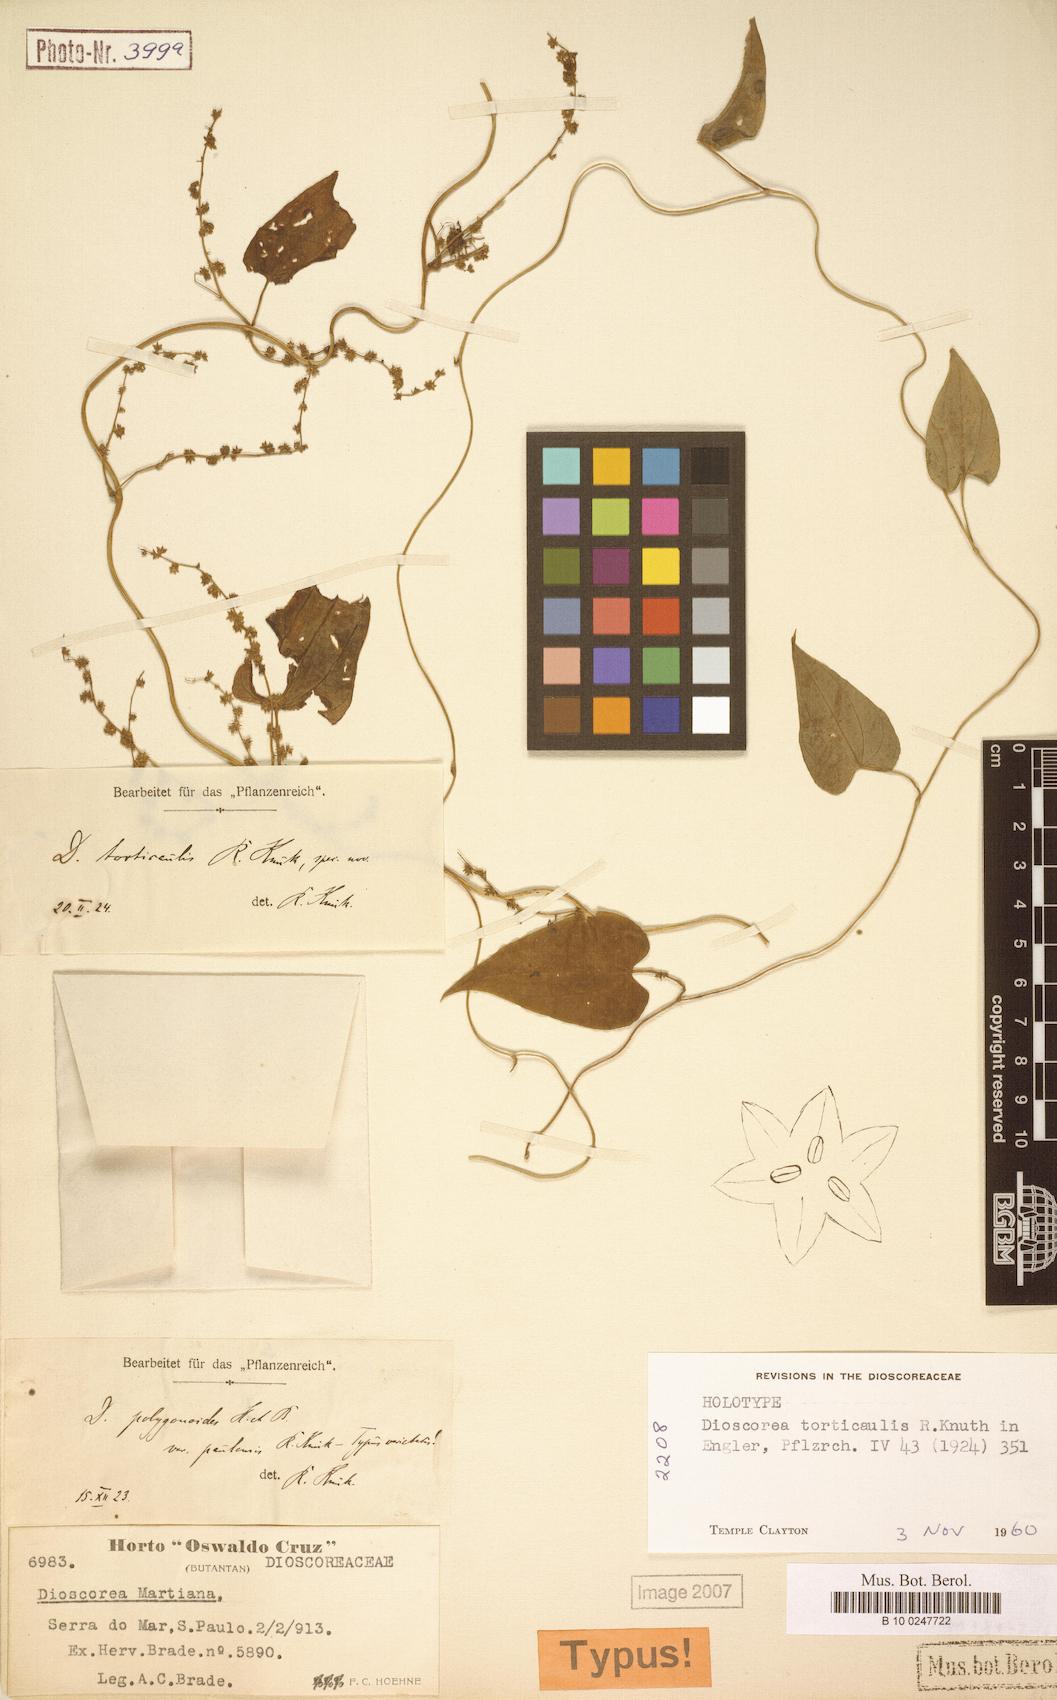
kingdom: Plantae
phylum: Tracheophyta
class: Liliopsida
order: Dioscoreales
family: Dioscoreaceae
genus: Dioscorea
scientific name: Dioscorea torticaulis
